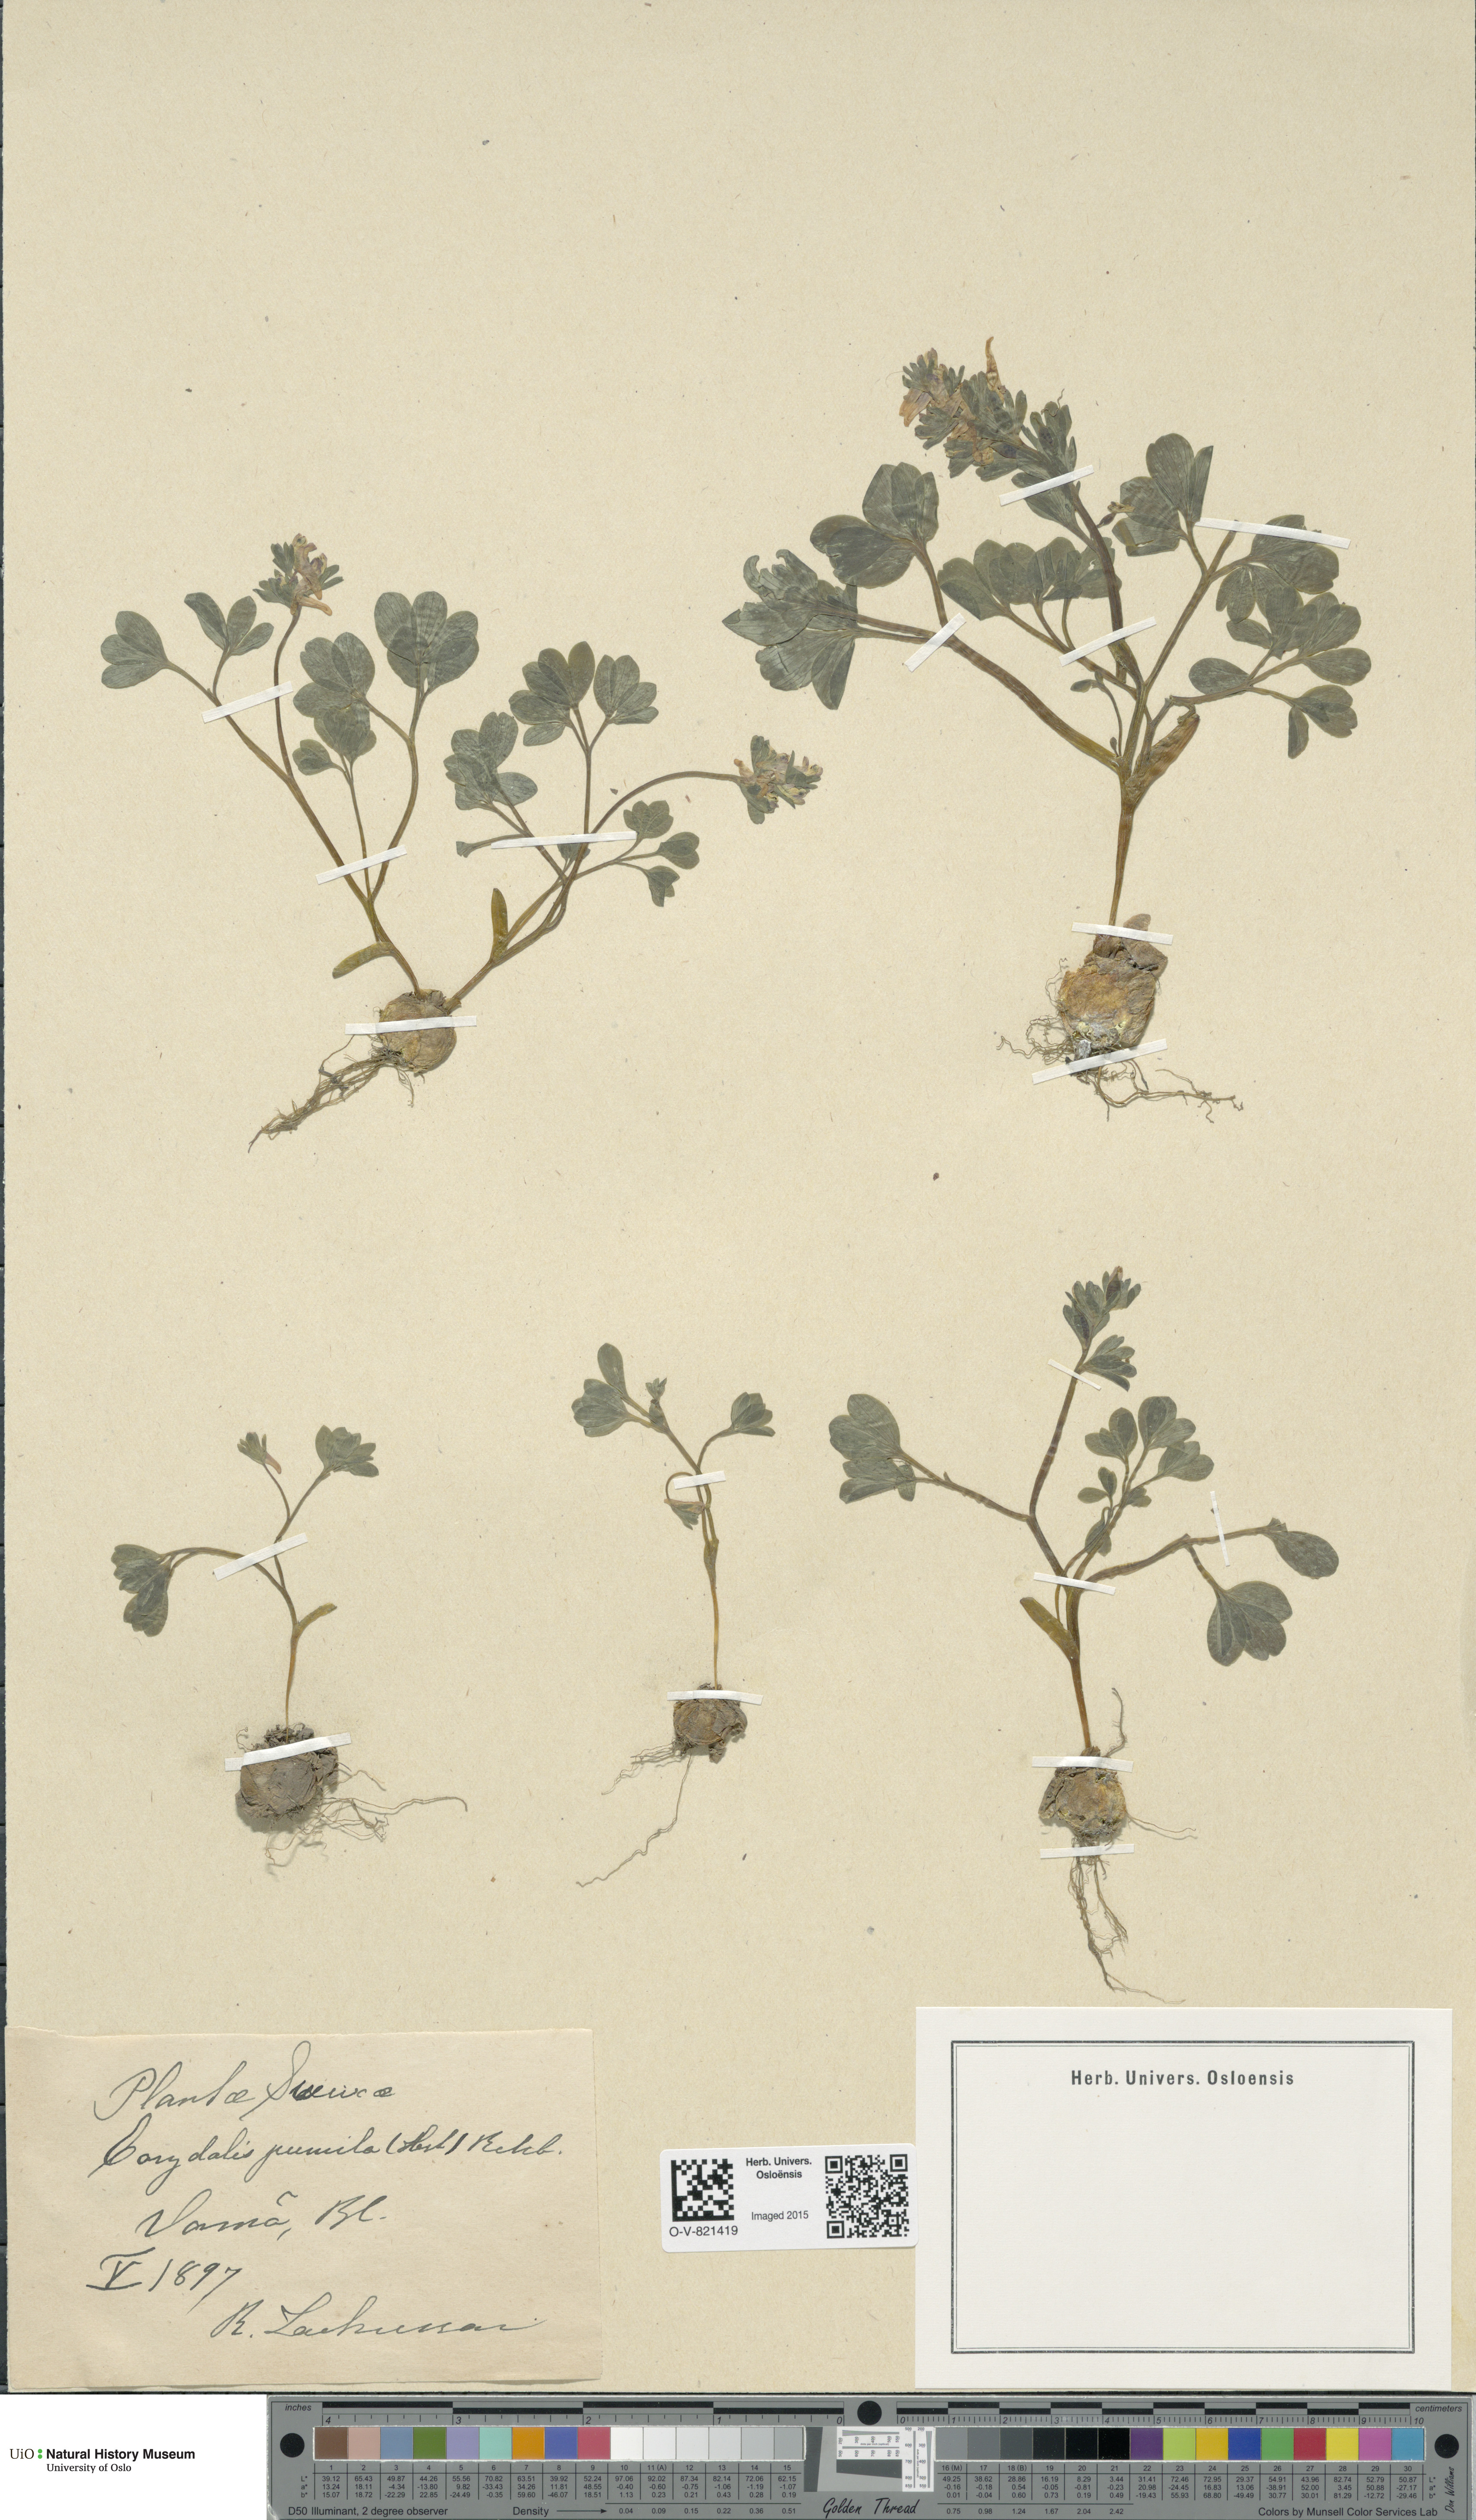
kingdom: Plantae
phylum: Tracheophyta
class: Magnoliopsida
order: Ranunculales
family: Papaveraceae
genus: Corydalis
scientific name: Corydalis pumila
